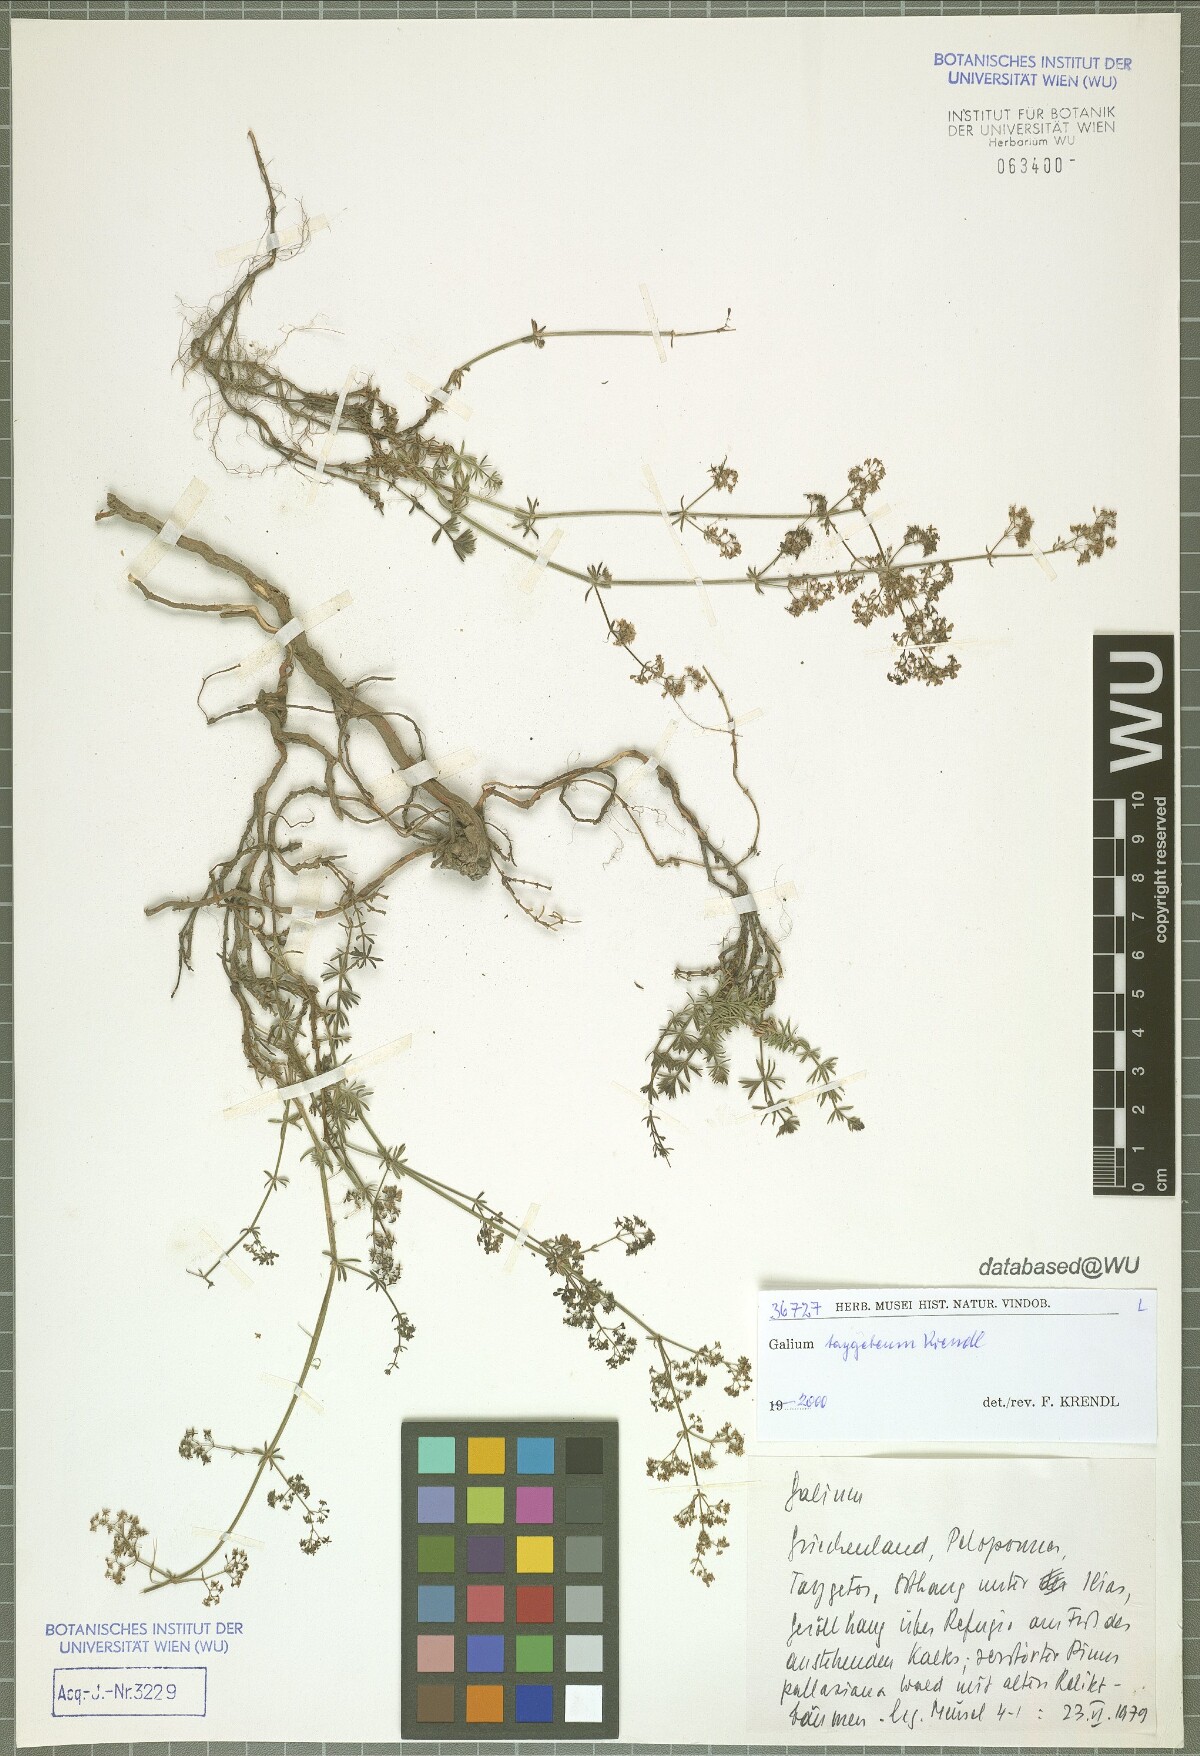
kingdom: Plantae
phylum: Tracheophyta
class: Magnoliopsida
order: Gentianales
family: Rubiaceae
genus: Galium
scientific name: Galium taygeteum
